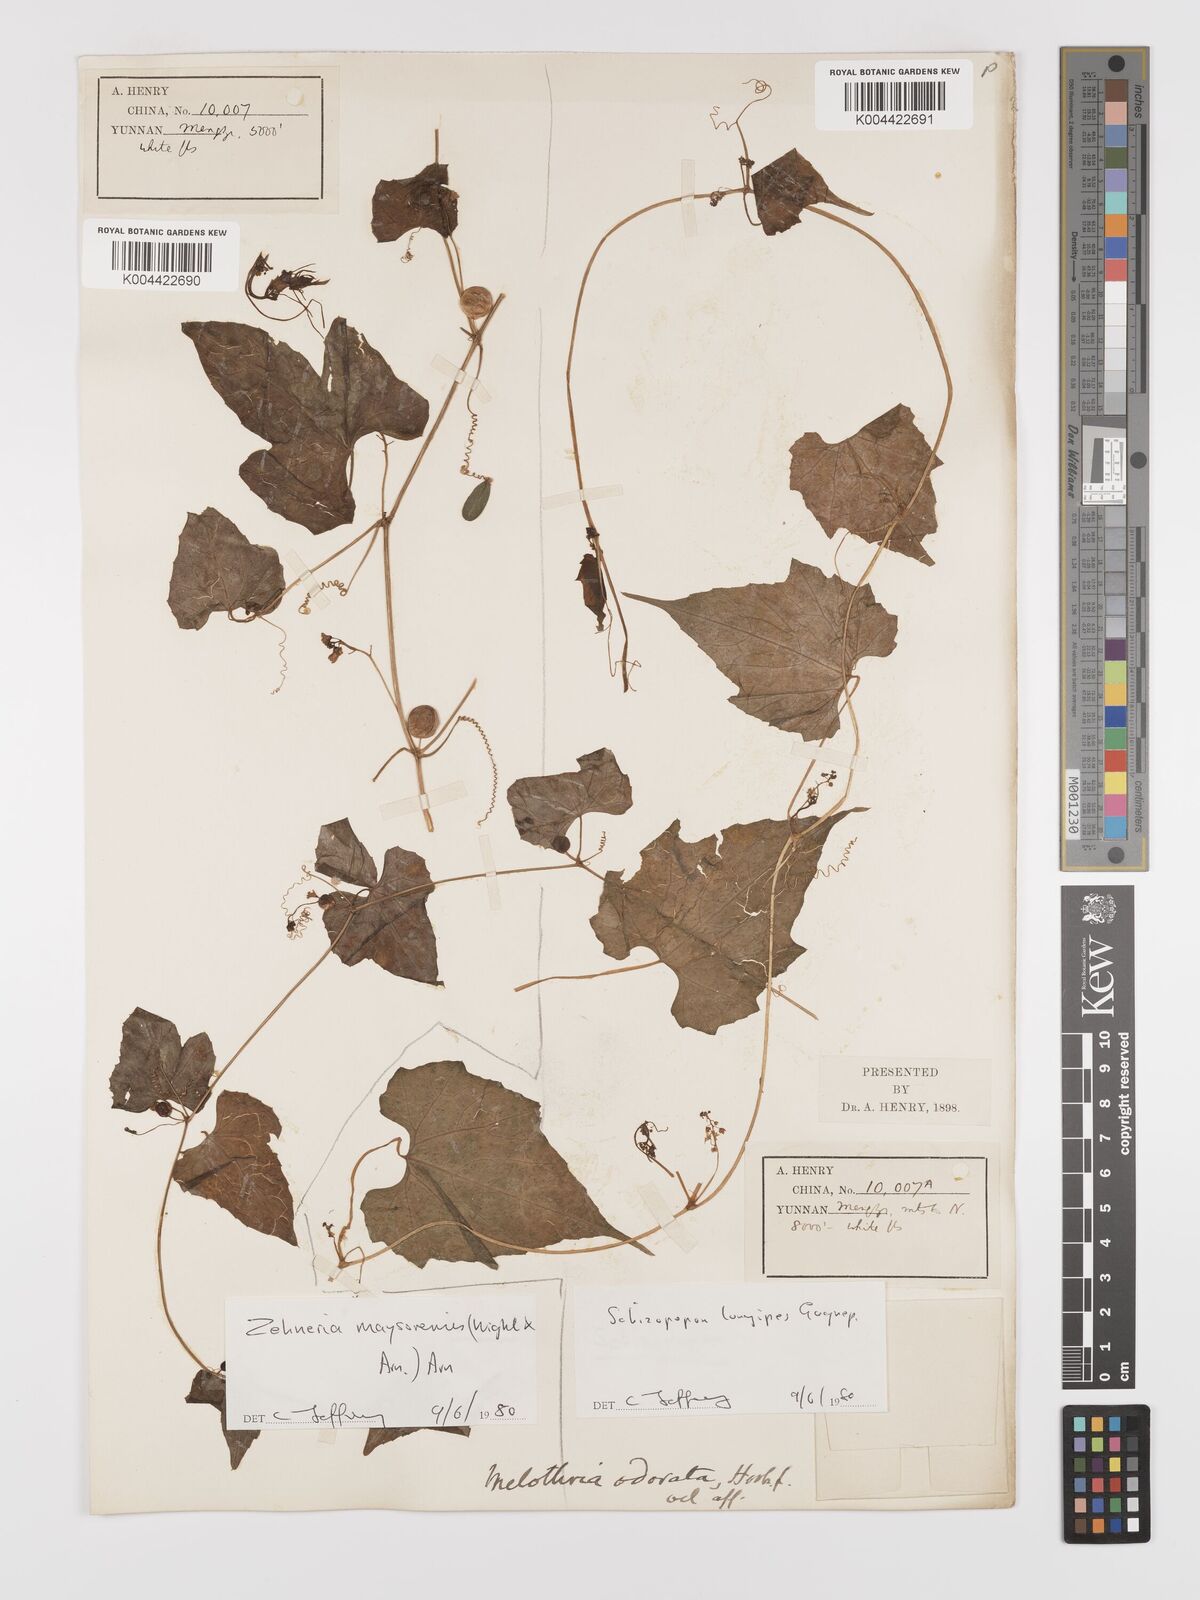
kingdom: Plantae
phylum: Tracheophyta
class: Magnoliopsida
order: Cucurbitales
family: Cucurbitaceae
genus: Schizopepon
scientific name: Schizopepon longipes
